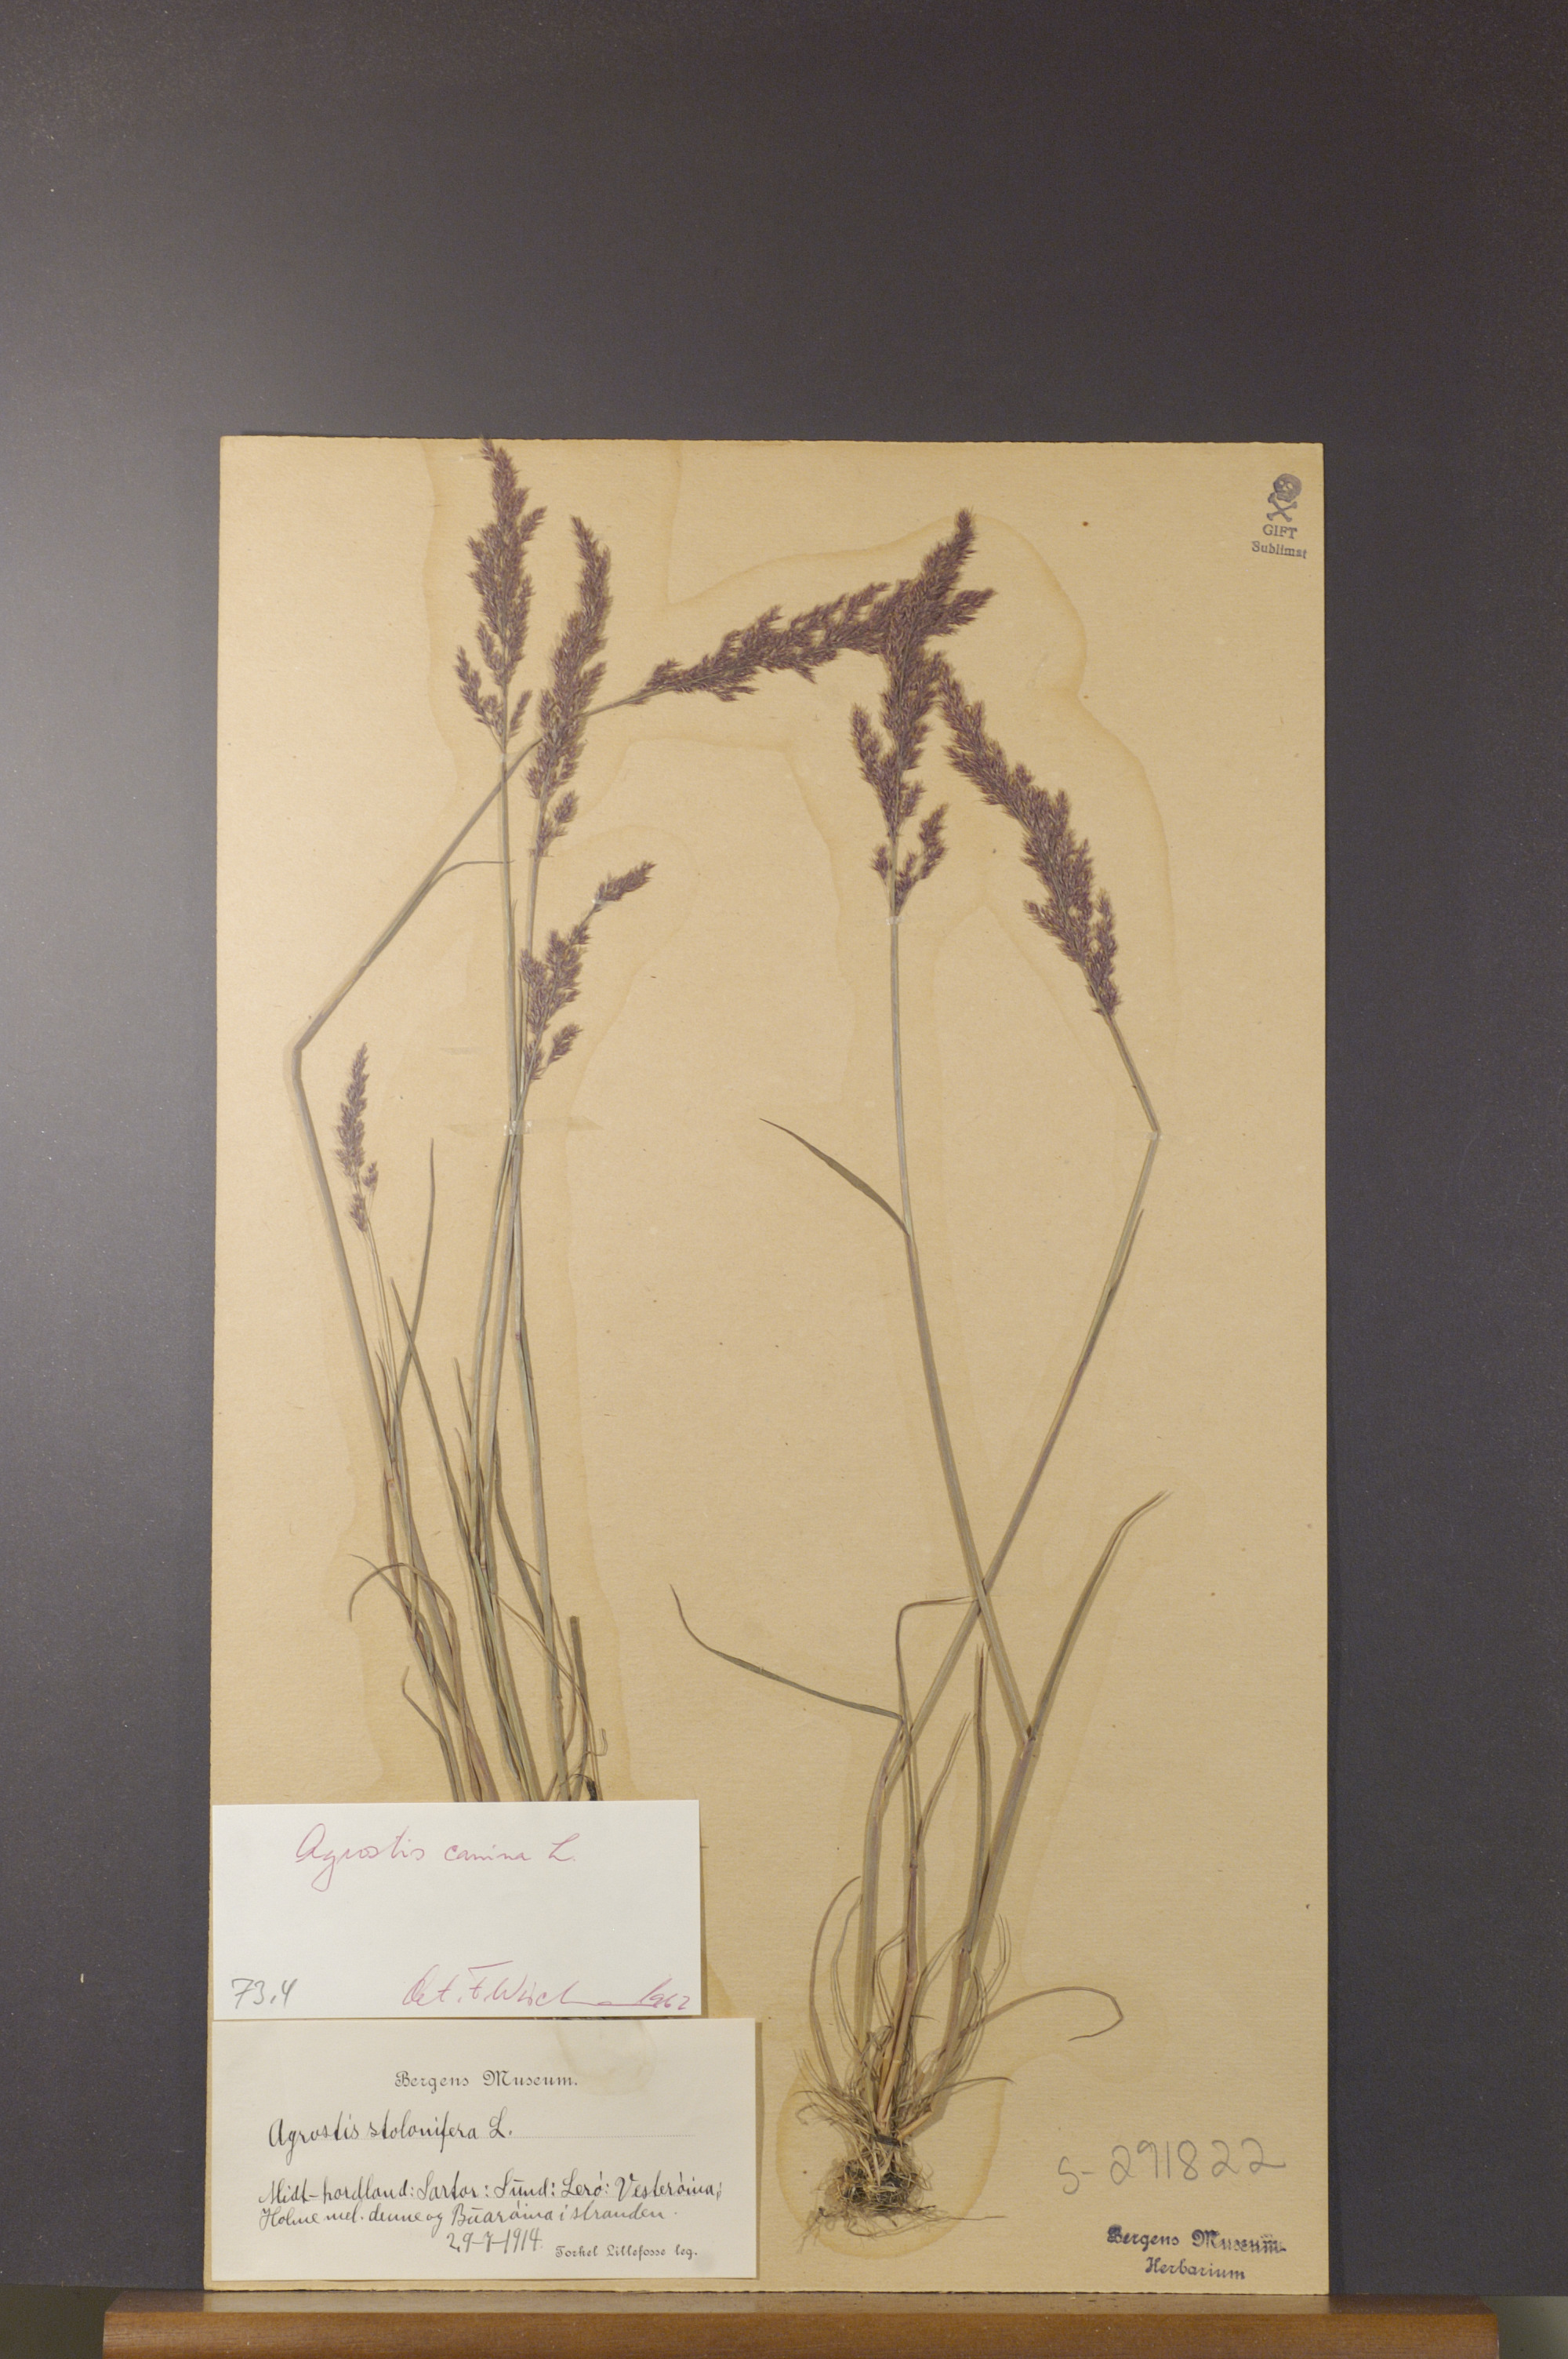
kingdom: Plantae
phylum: Tracheophyta
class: Liliopsida
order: Poales
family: Poaceae
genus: Agrostis
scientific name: Agrostis canina
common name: Velvet bent
